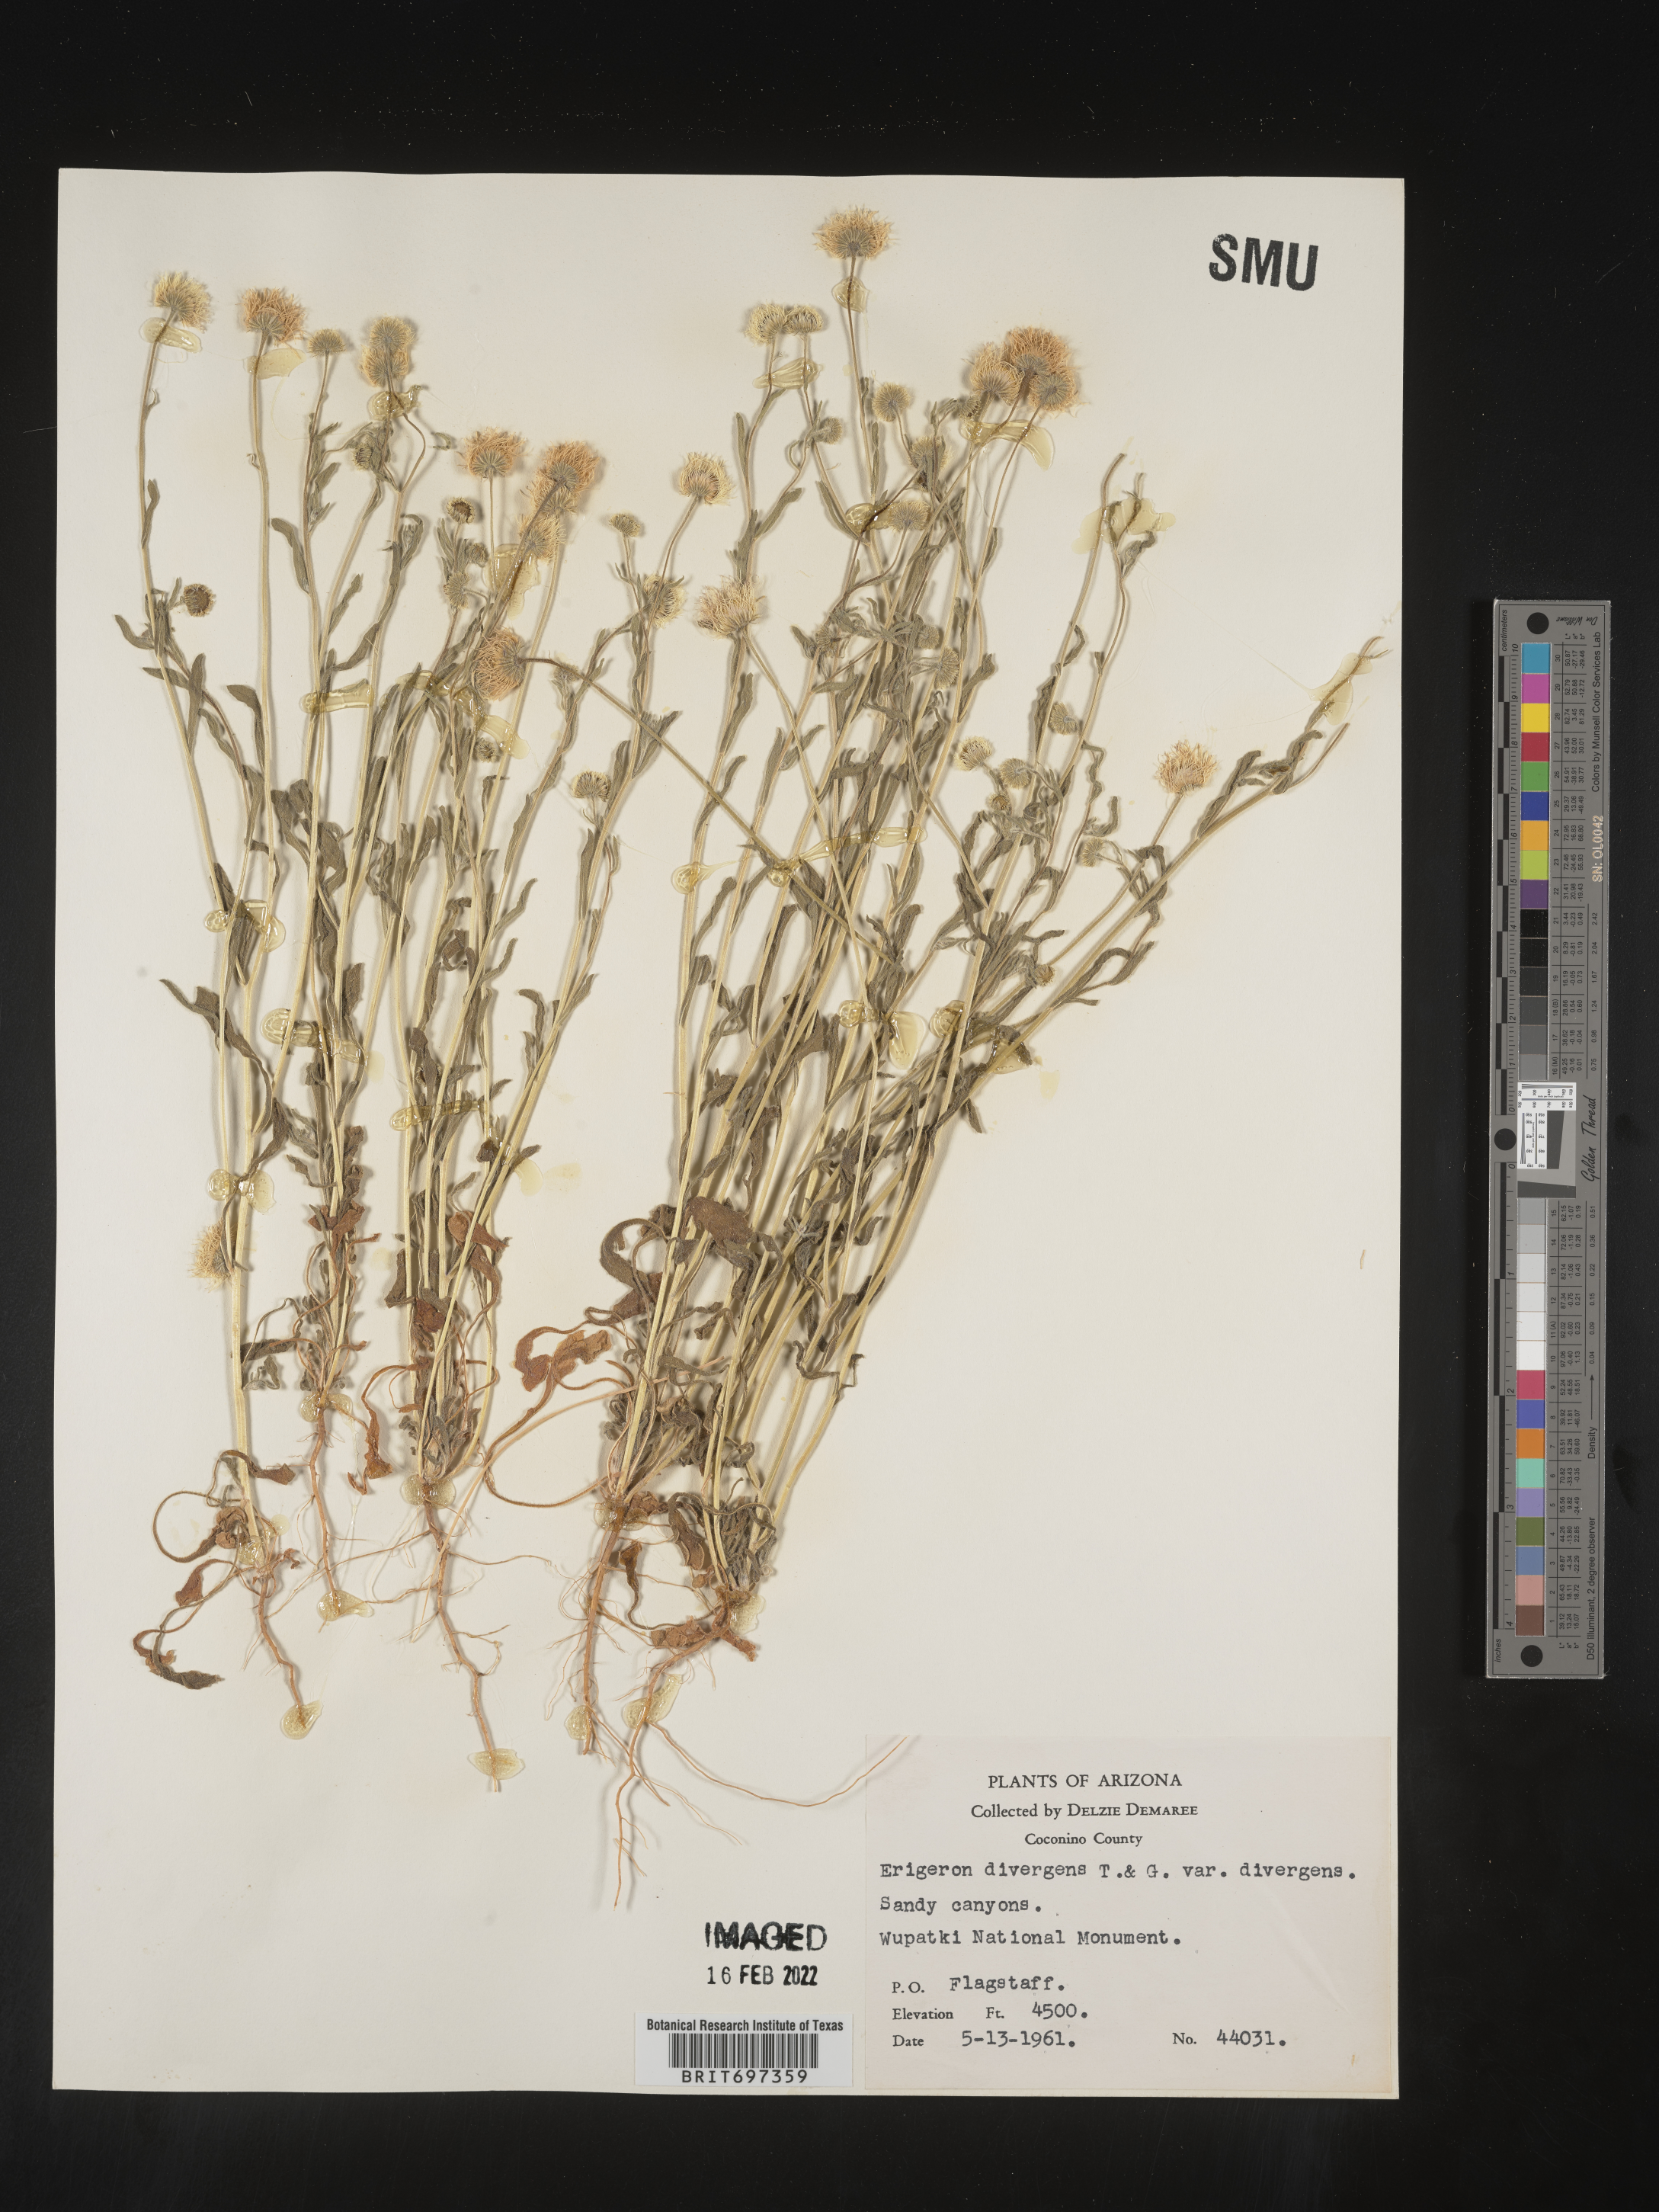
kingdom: Plantae
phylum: Tracheophyta
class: Magnoliopsida
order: Asterales
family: Asteraceae
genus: Erigeron
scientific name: Erigeron divergens
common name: Diffuse fleabane
